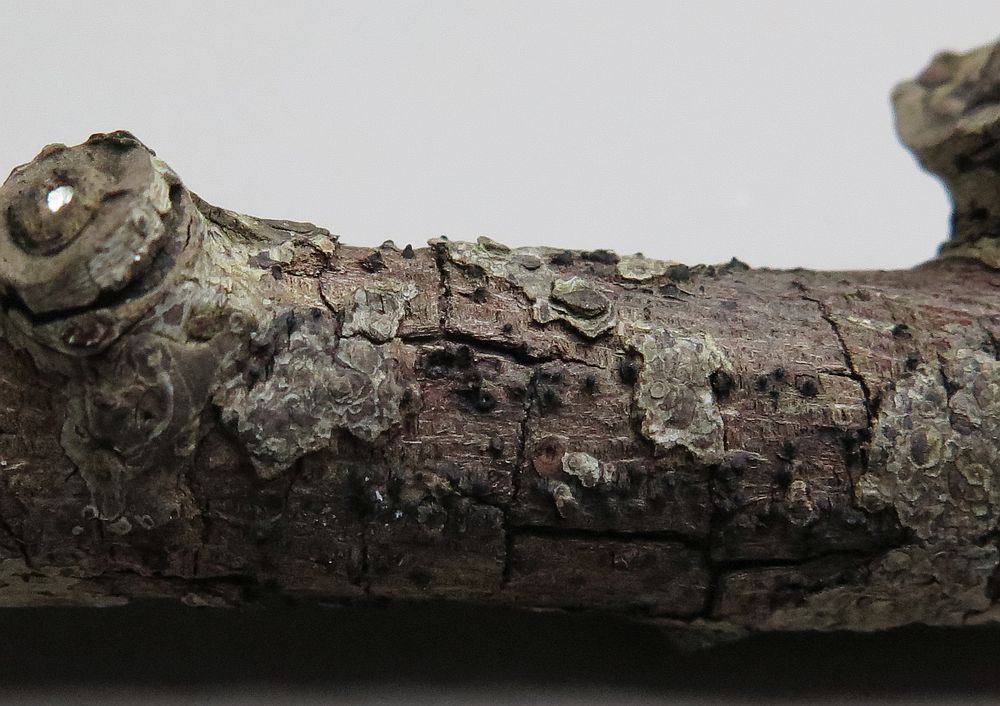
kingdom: Fungi
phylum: Ascomycota
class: Dothideomycetes
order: Pleosporales
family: Lophiostomataceae
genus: Lophiostoma
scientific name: Lophiostoma compressum
